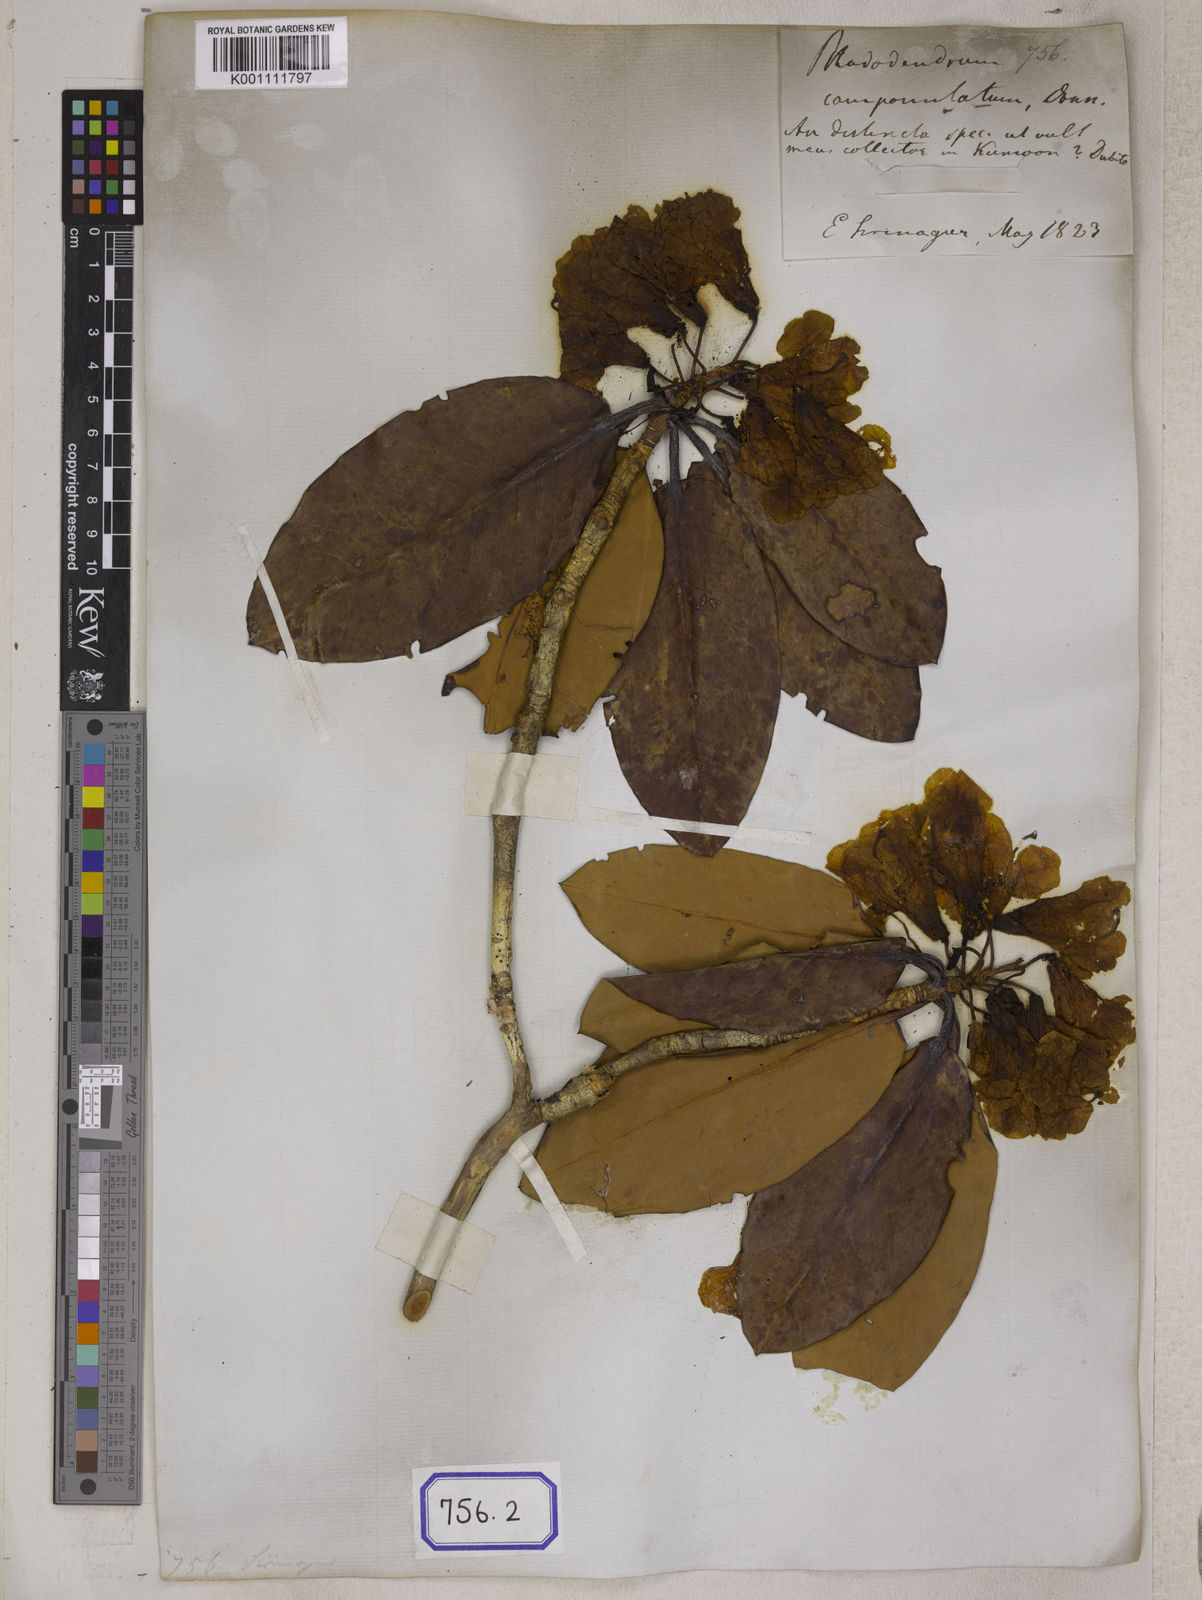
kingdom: Plantae
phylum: Tracheophyta
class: Magnoliopsida
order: Ericales
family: Ericaceae
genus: Rhododendron
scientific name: Rhododendron campanulatum
